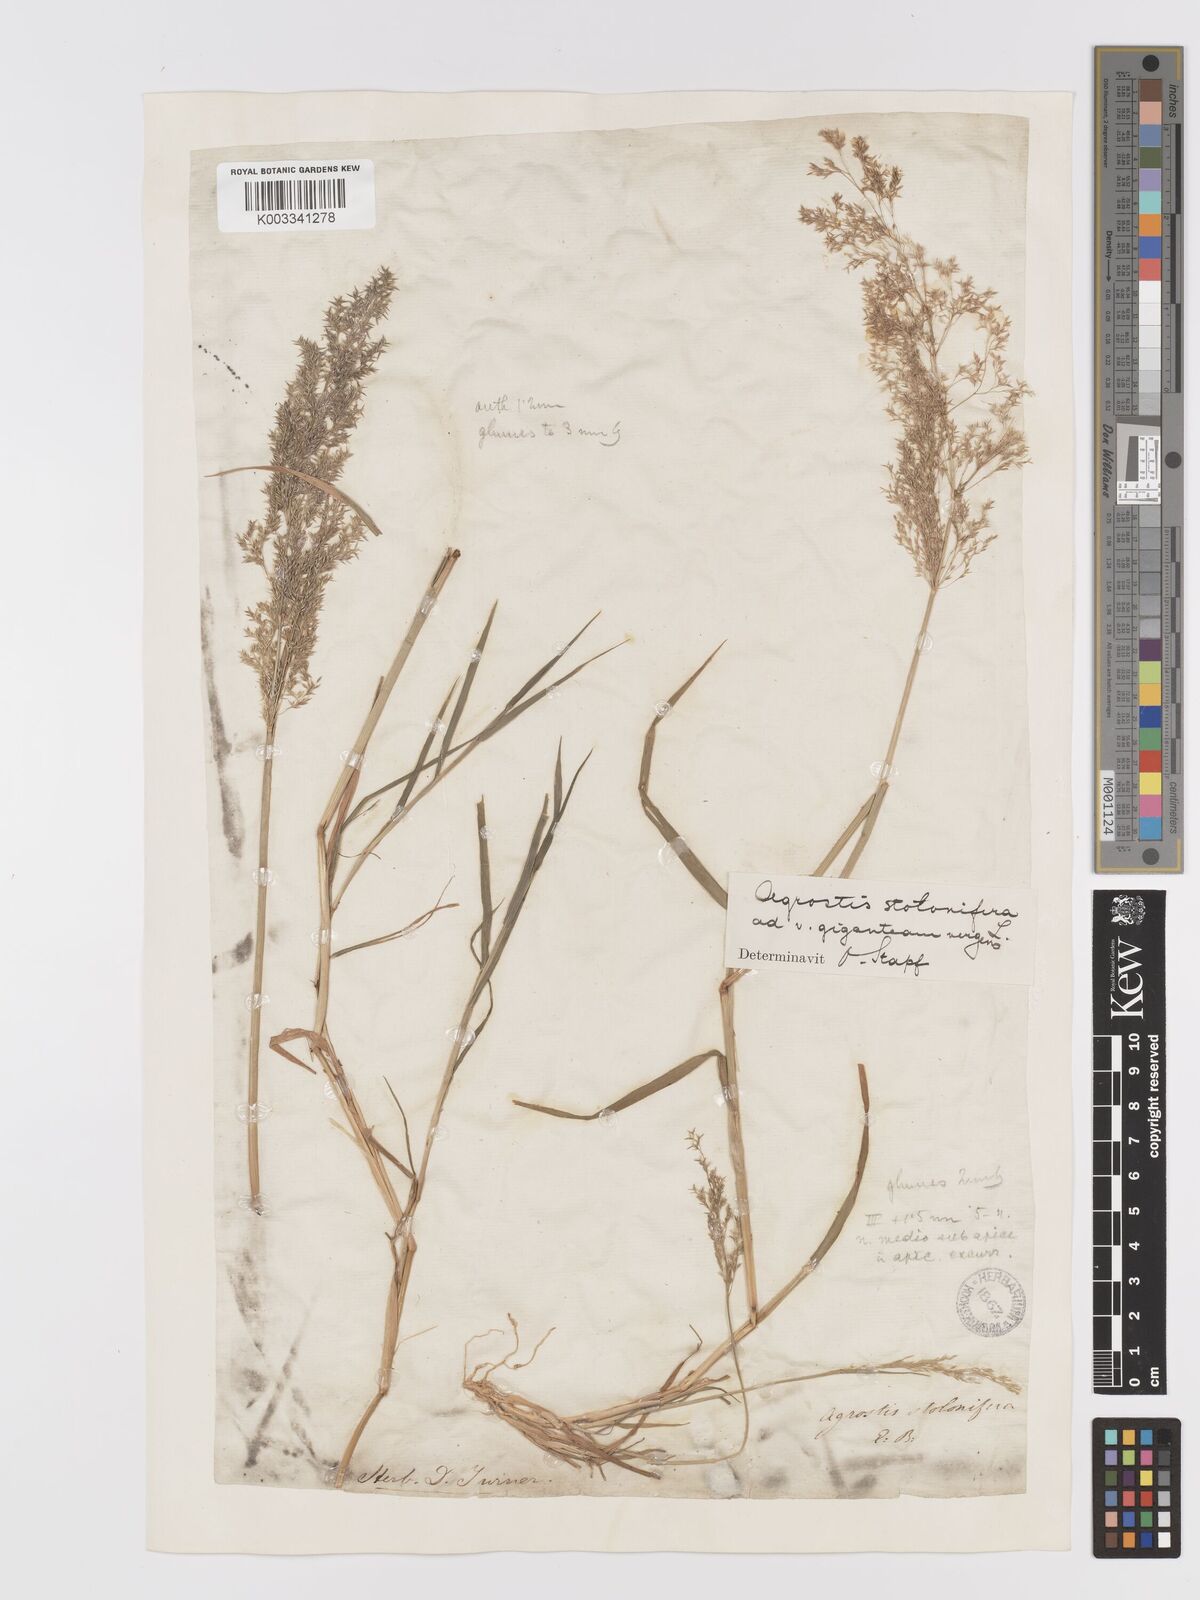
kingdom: Plantae
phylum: Tracheophyta
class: Liliopsida
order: Poales
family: Poaceae
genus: Agrostis
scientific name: Agrostis gigantea
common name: Black bent
